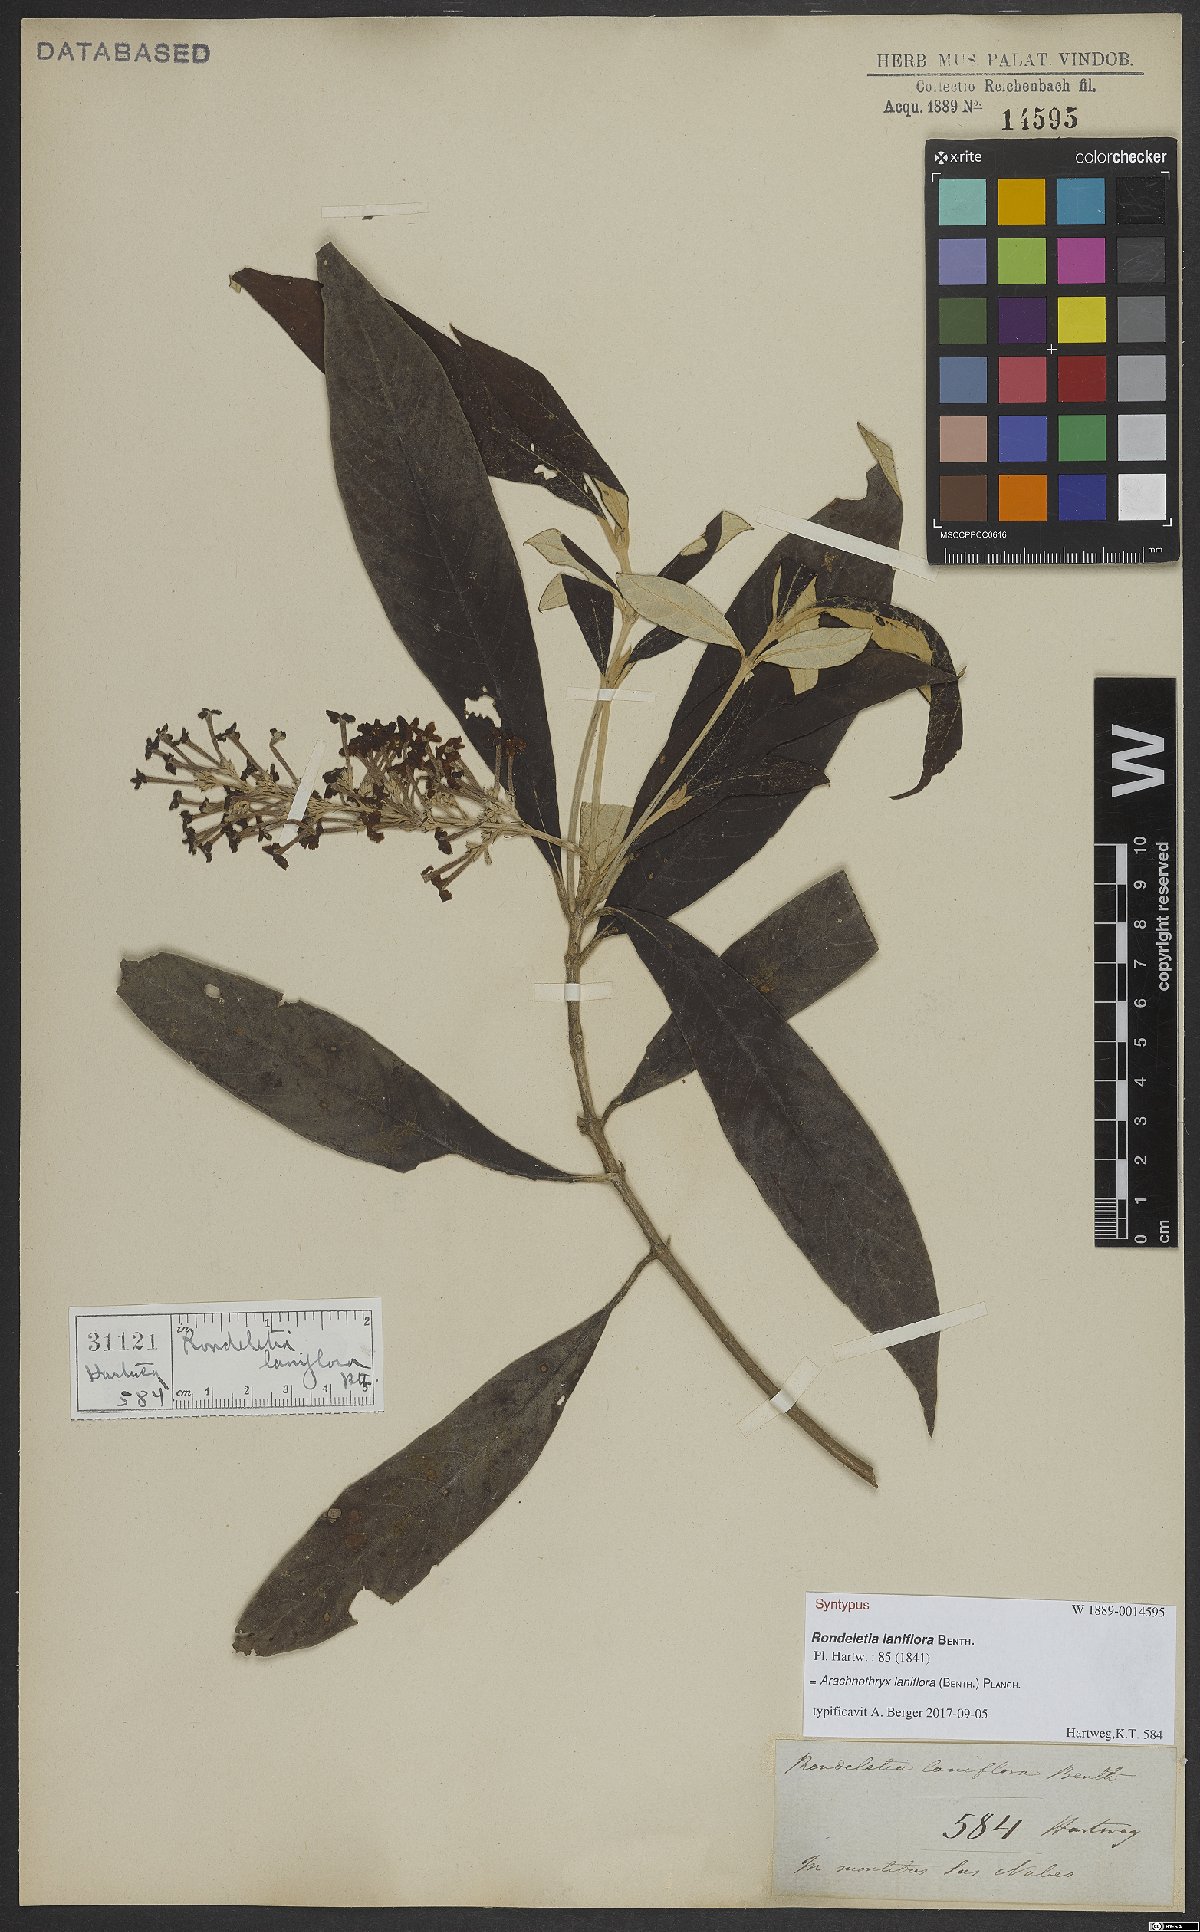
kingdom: Plantae
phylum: Tracheophyta
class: Magnoliopsida
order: Gentianales
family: Rubiaceae
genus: Arachnothryx
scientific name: Arachnothryx laniflora
